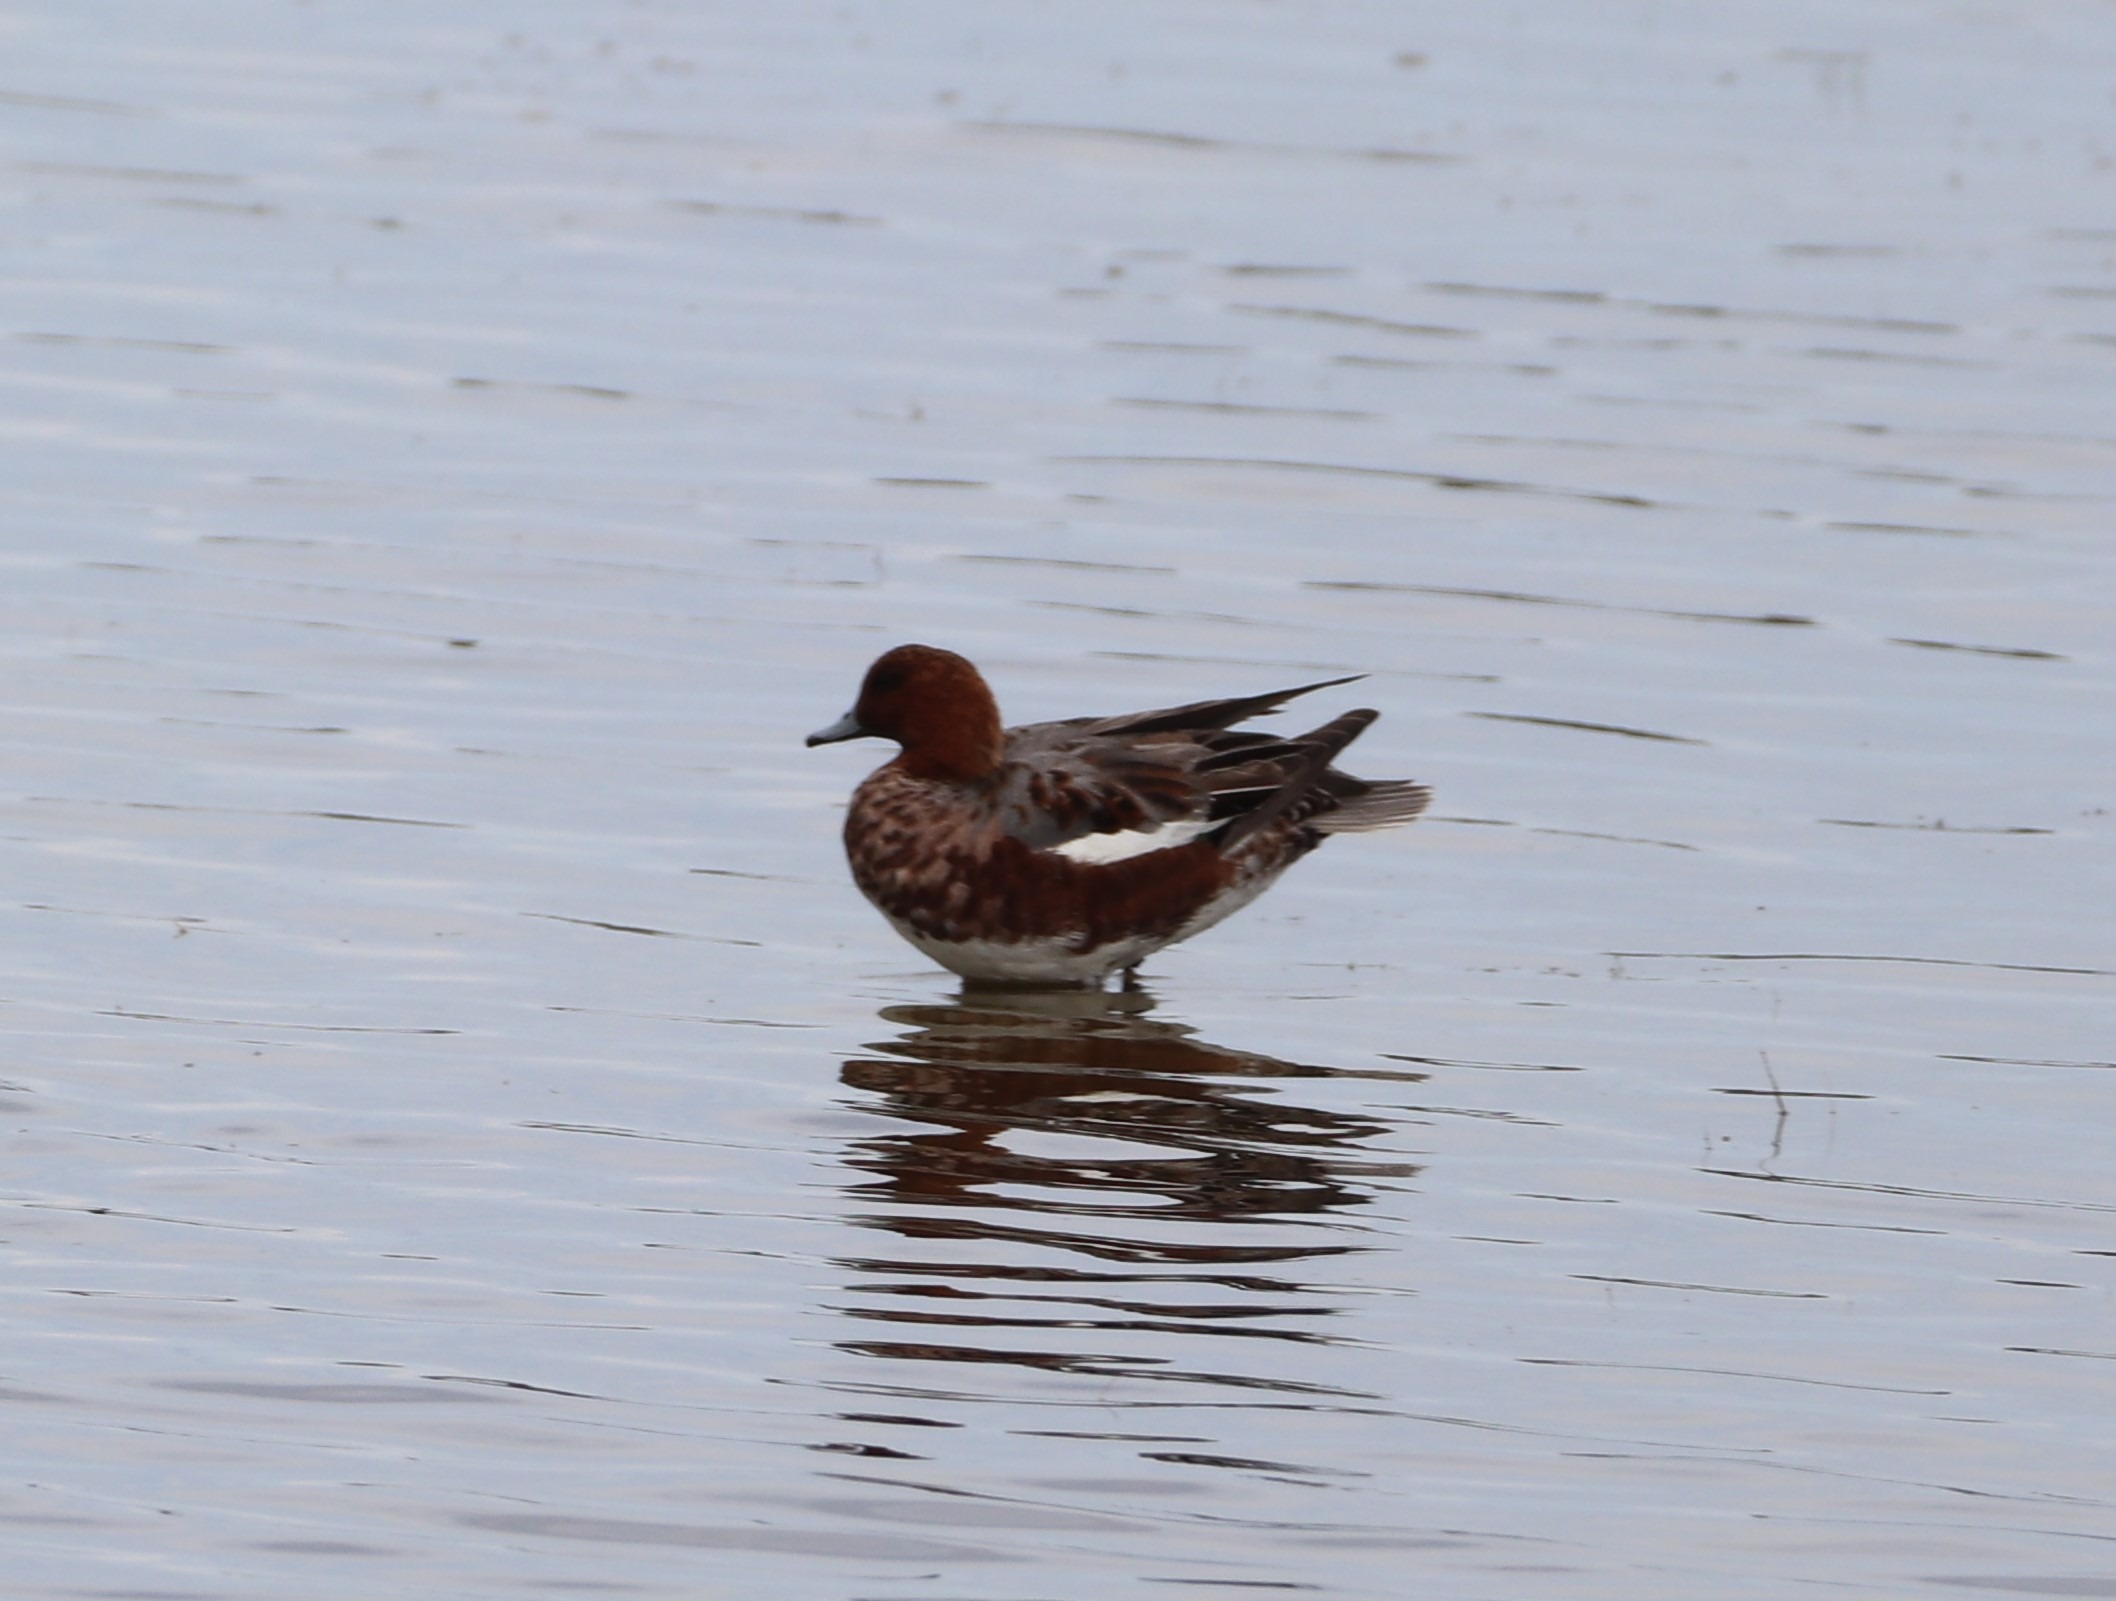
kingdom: Animalia
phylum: Chordata
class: Aves
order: Anseriformes
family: Anatidae
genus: Mareca
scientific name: Mareca penelope
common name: Pibeand
